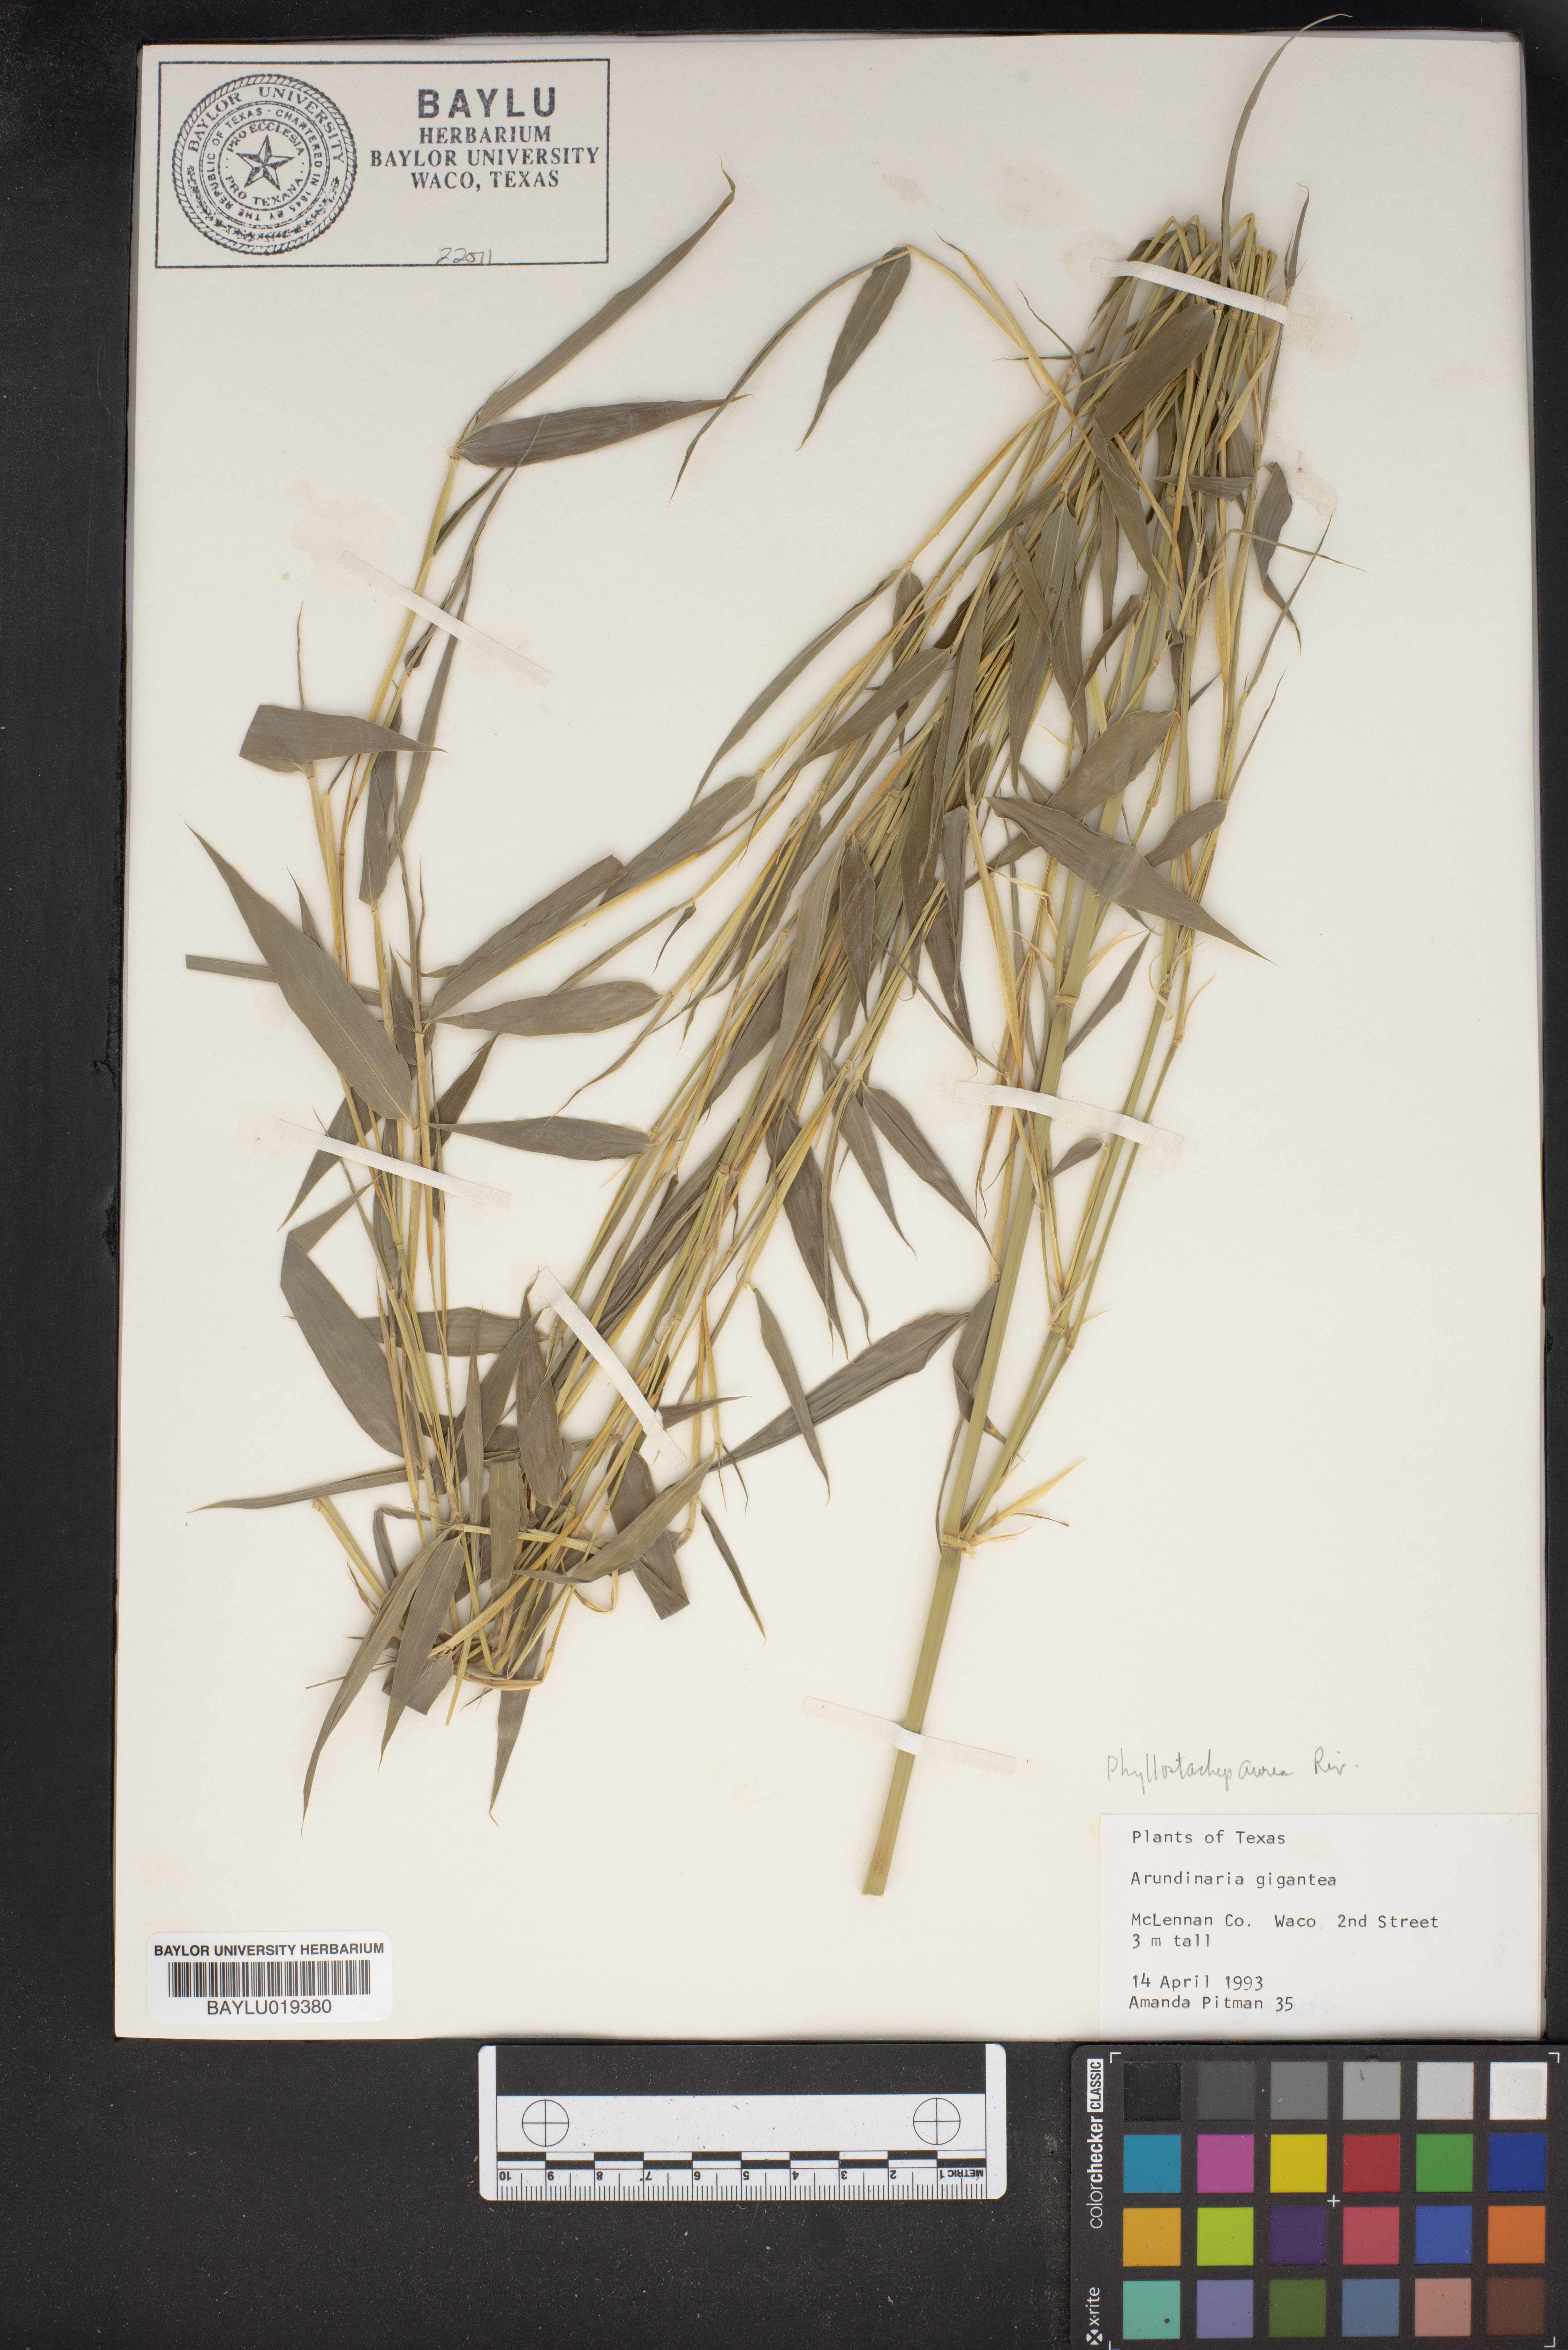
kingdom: Plantae
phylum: Tracheophyta
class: Liliopsida
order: Poales
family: Poaceae
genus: Arundinaria
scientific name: Arundinaria gigantea
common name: Giant cane
